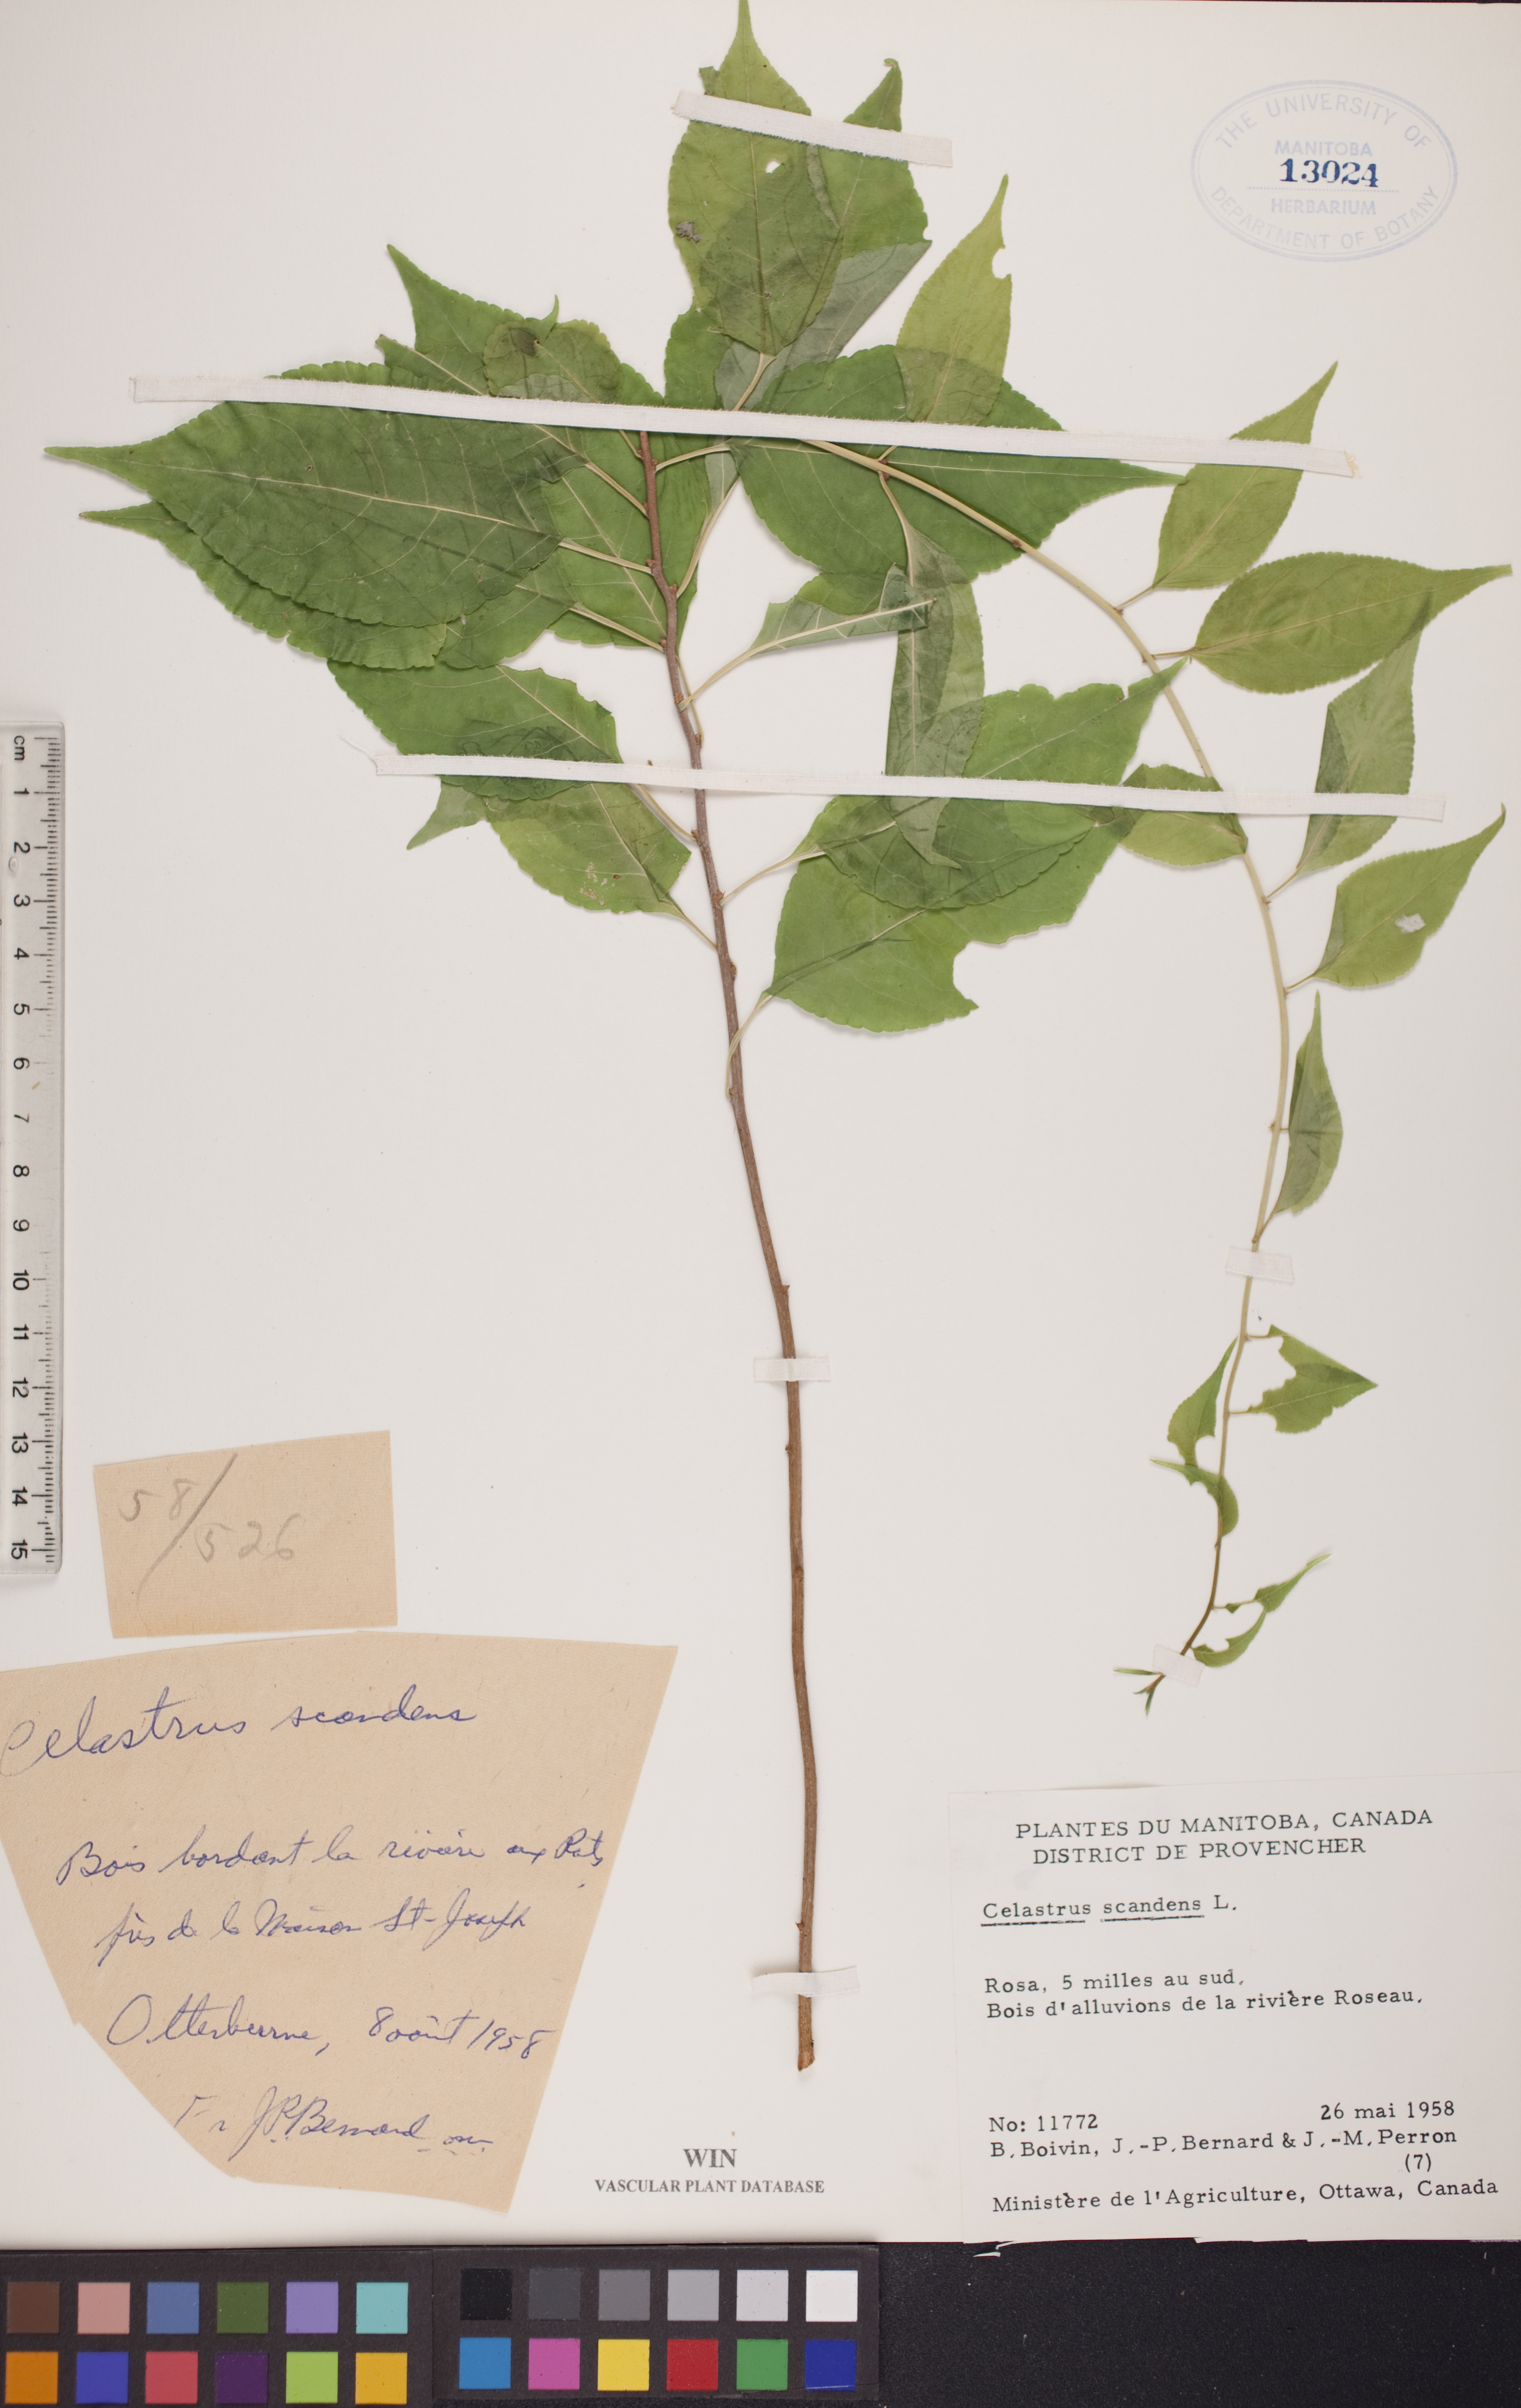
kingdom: Plantae
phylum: Tracheophyta
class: Magnoliopsida
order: Celastrales
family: Celastraceae
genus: Celastrus
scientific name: Celastrus scandens
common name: American bittersweet
